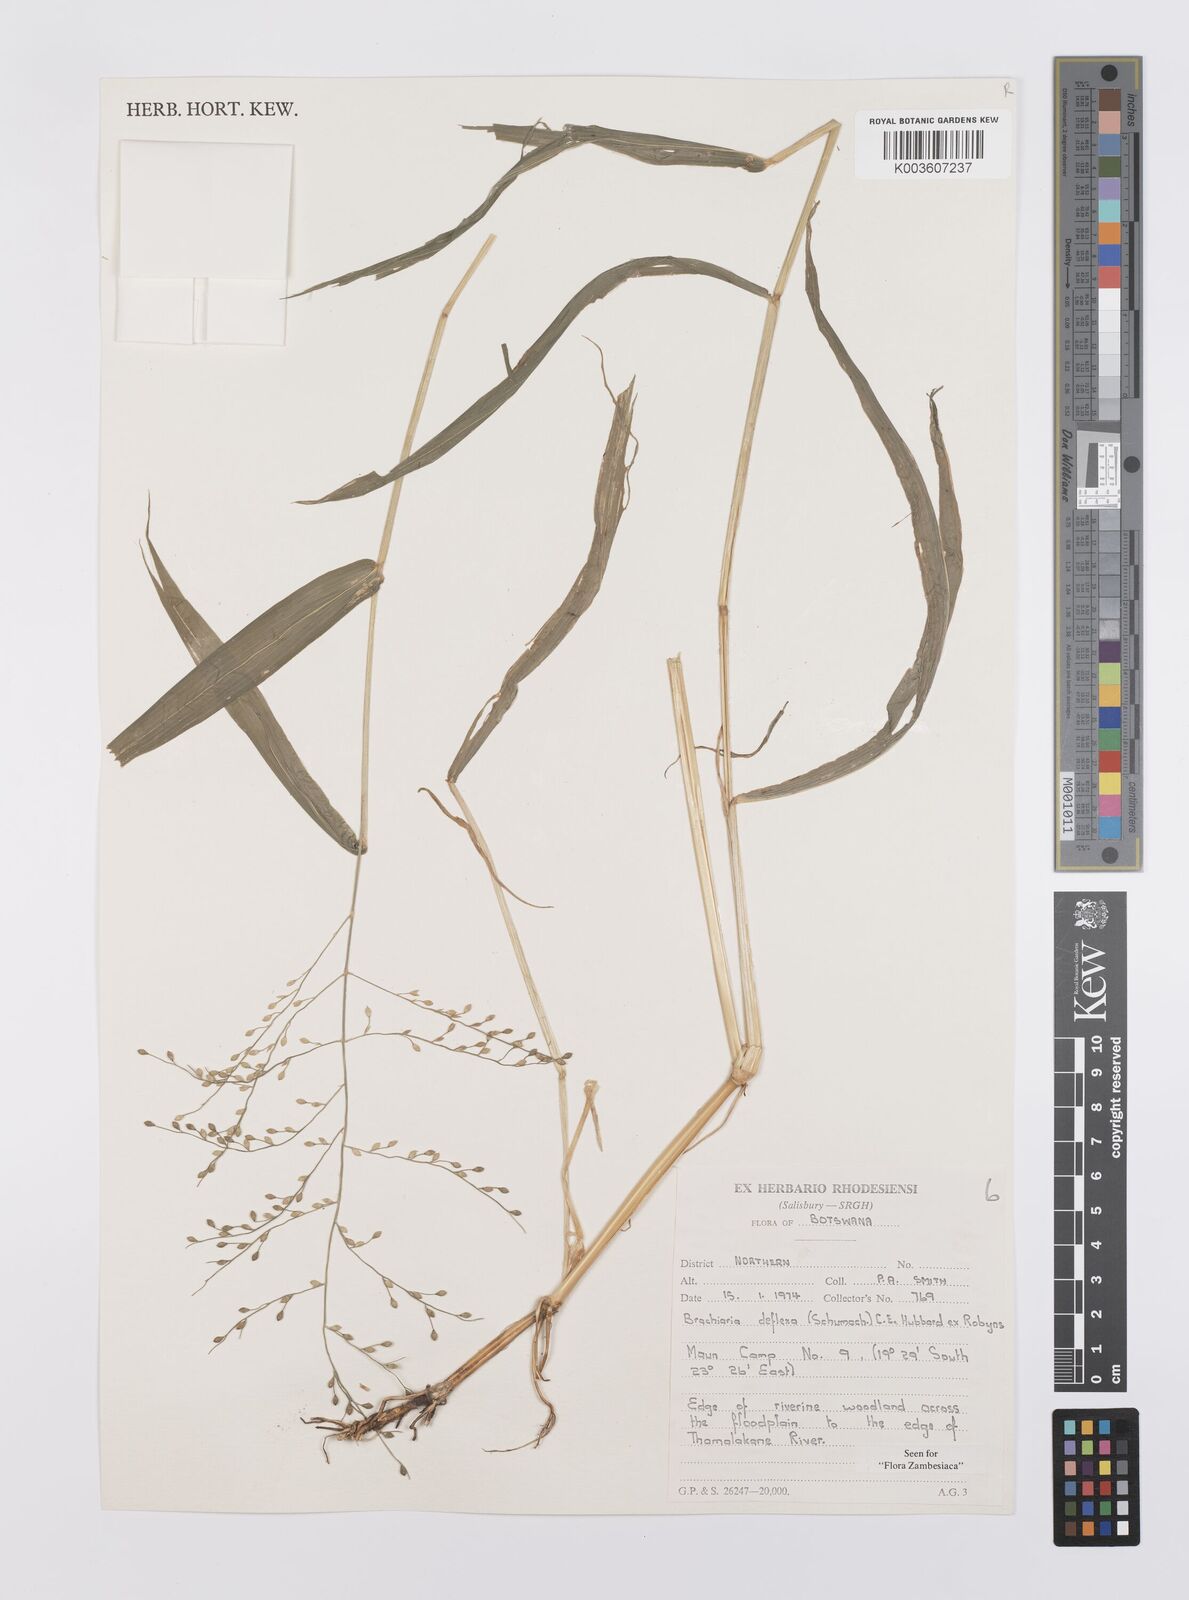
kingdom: Plantae
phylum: Tracheophyta
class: Liliopsida
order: Poales
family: Poaceae
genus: Urochloa
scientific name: Urochloa deflexa
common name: Guinea millet
